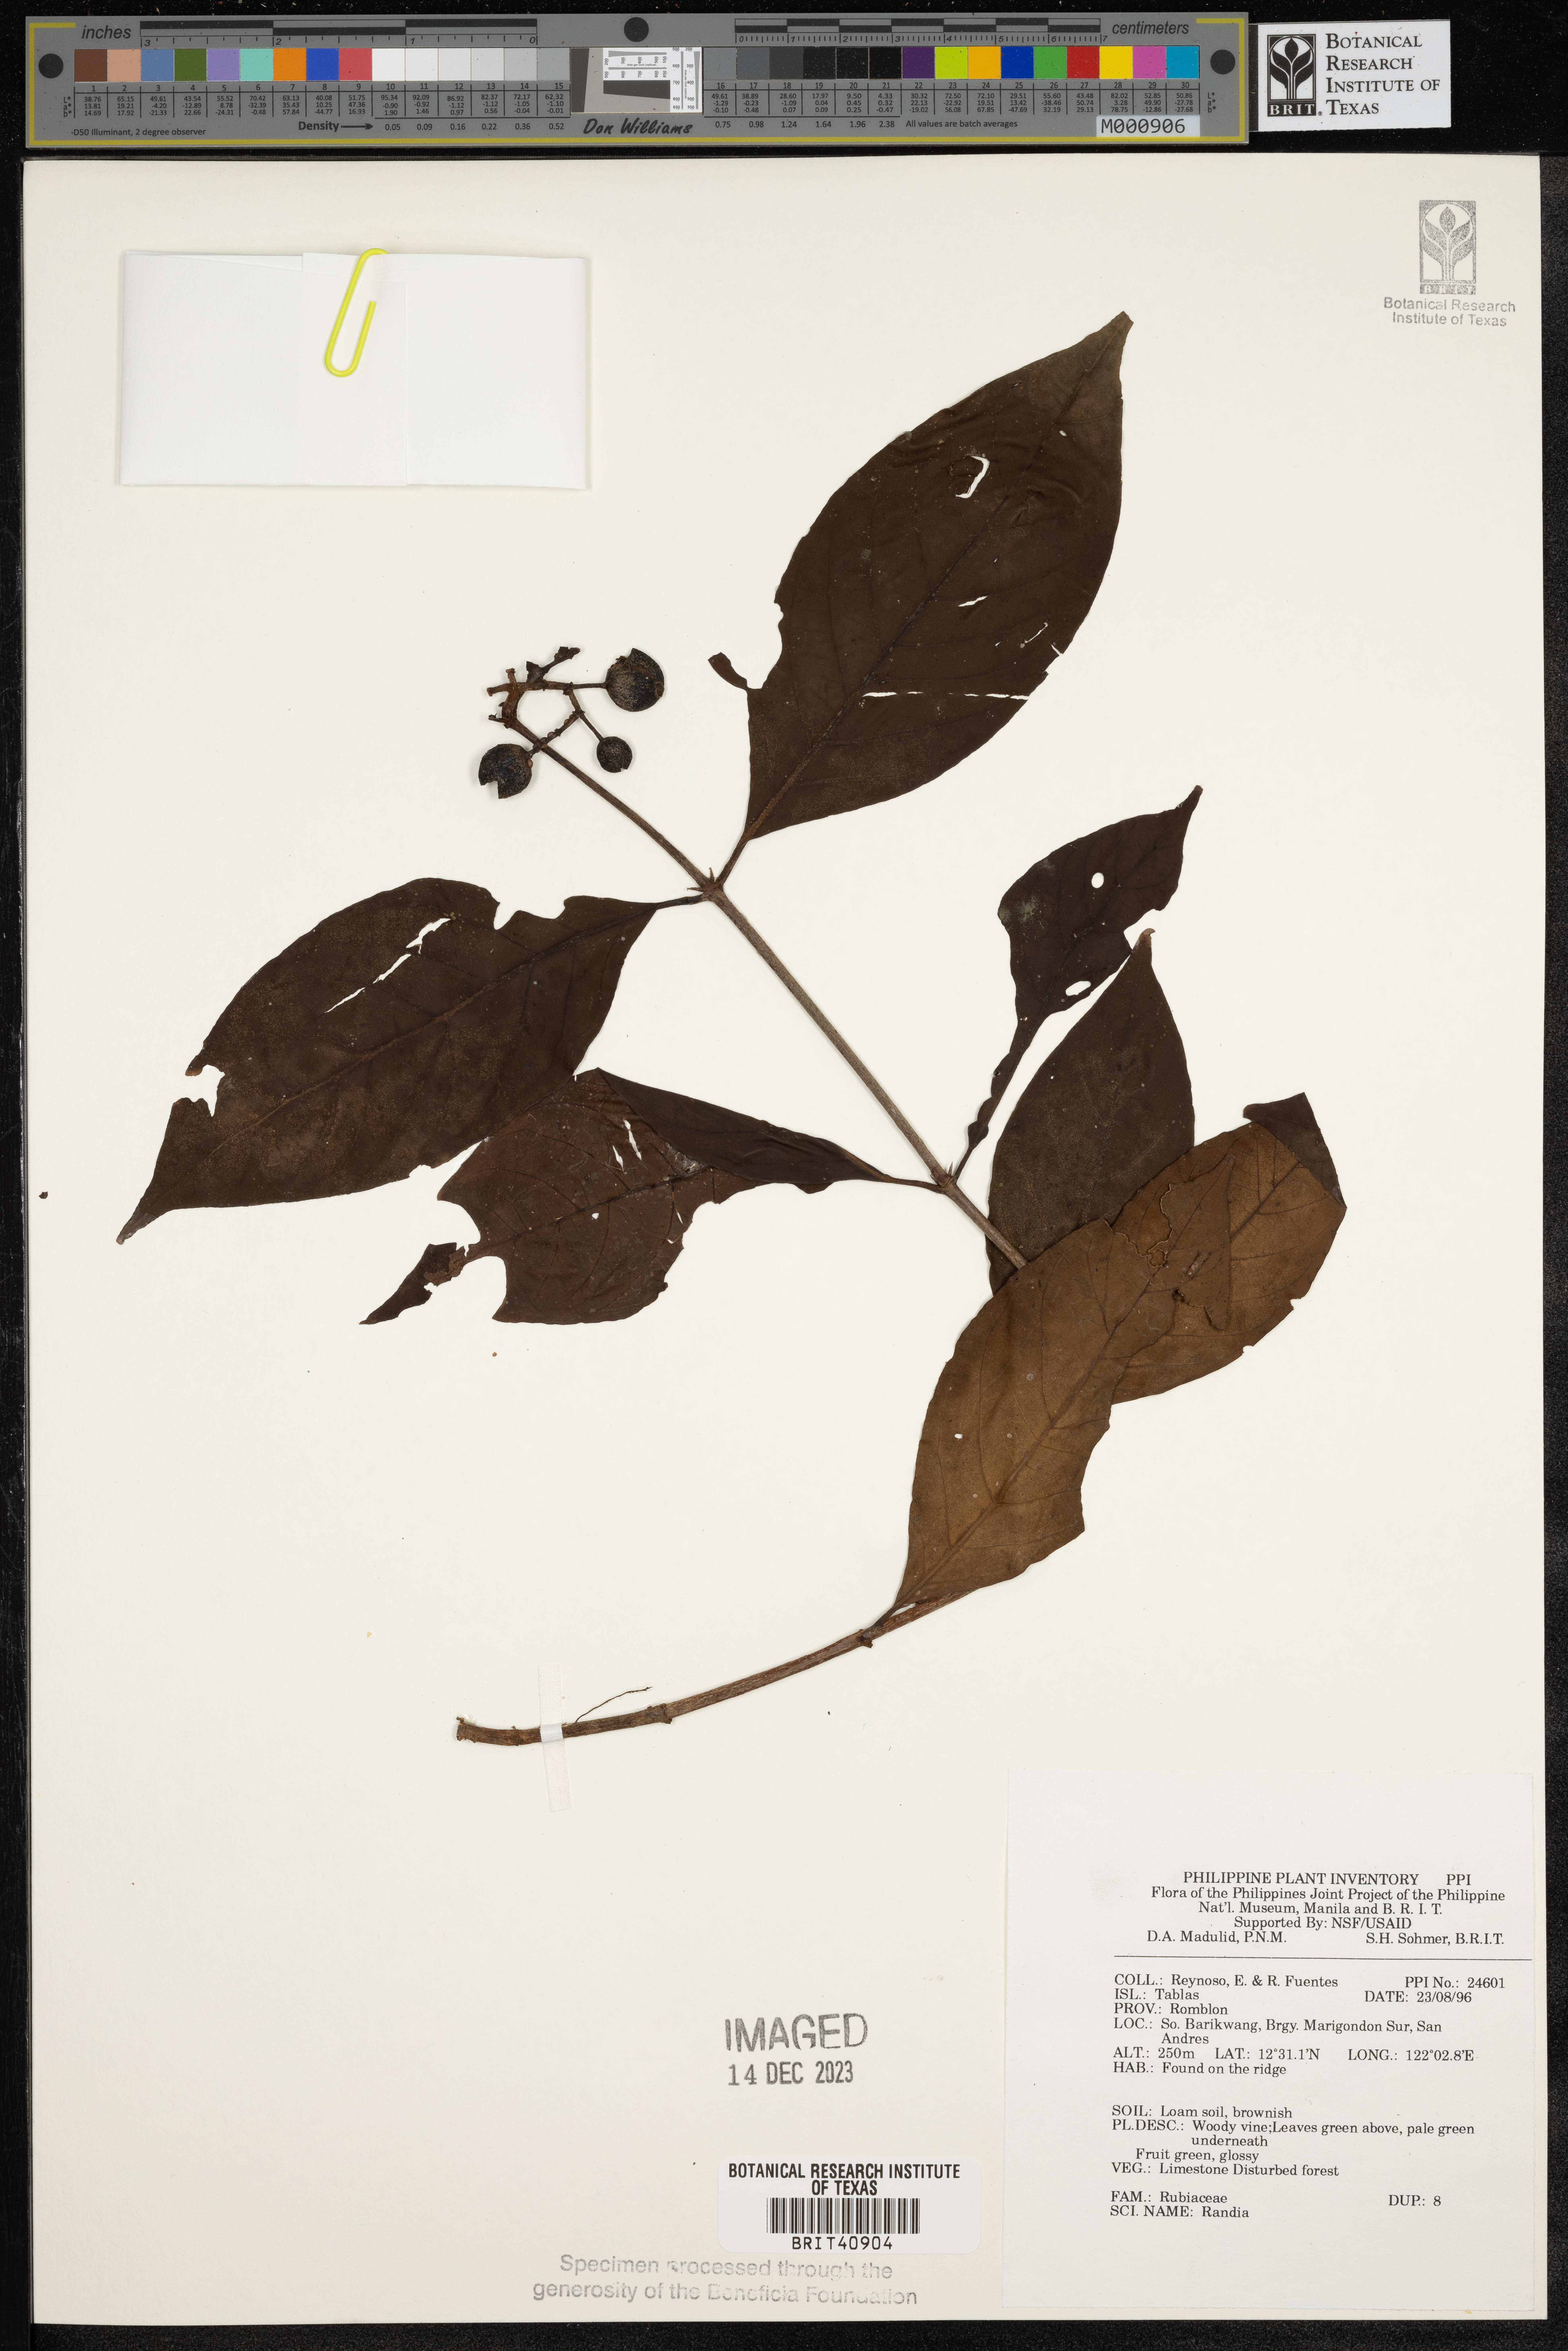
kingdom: Plantae
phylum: Tracheophyta
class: Magnoliopsida
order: Gentianales
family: Rubiaceae
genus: Randia
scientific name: Randia
